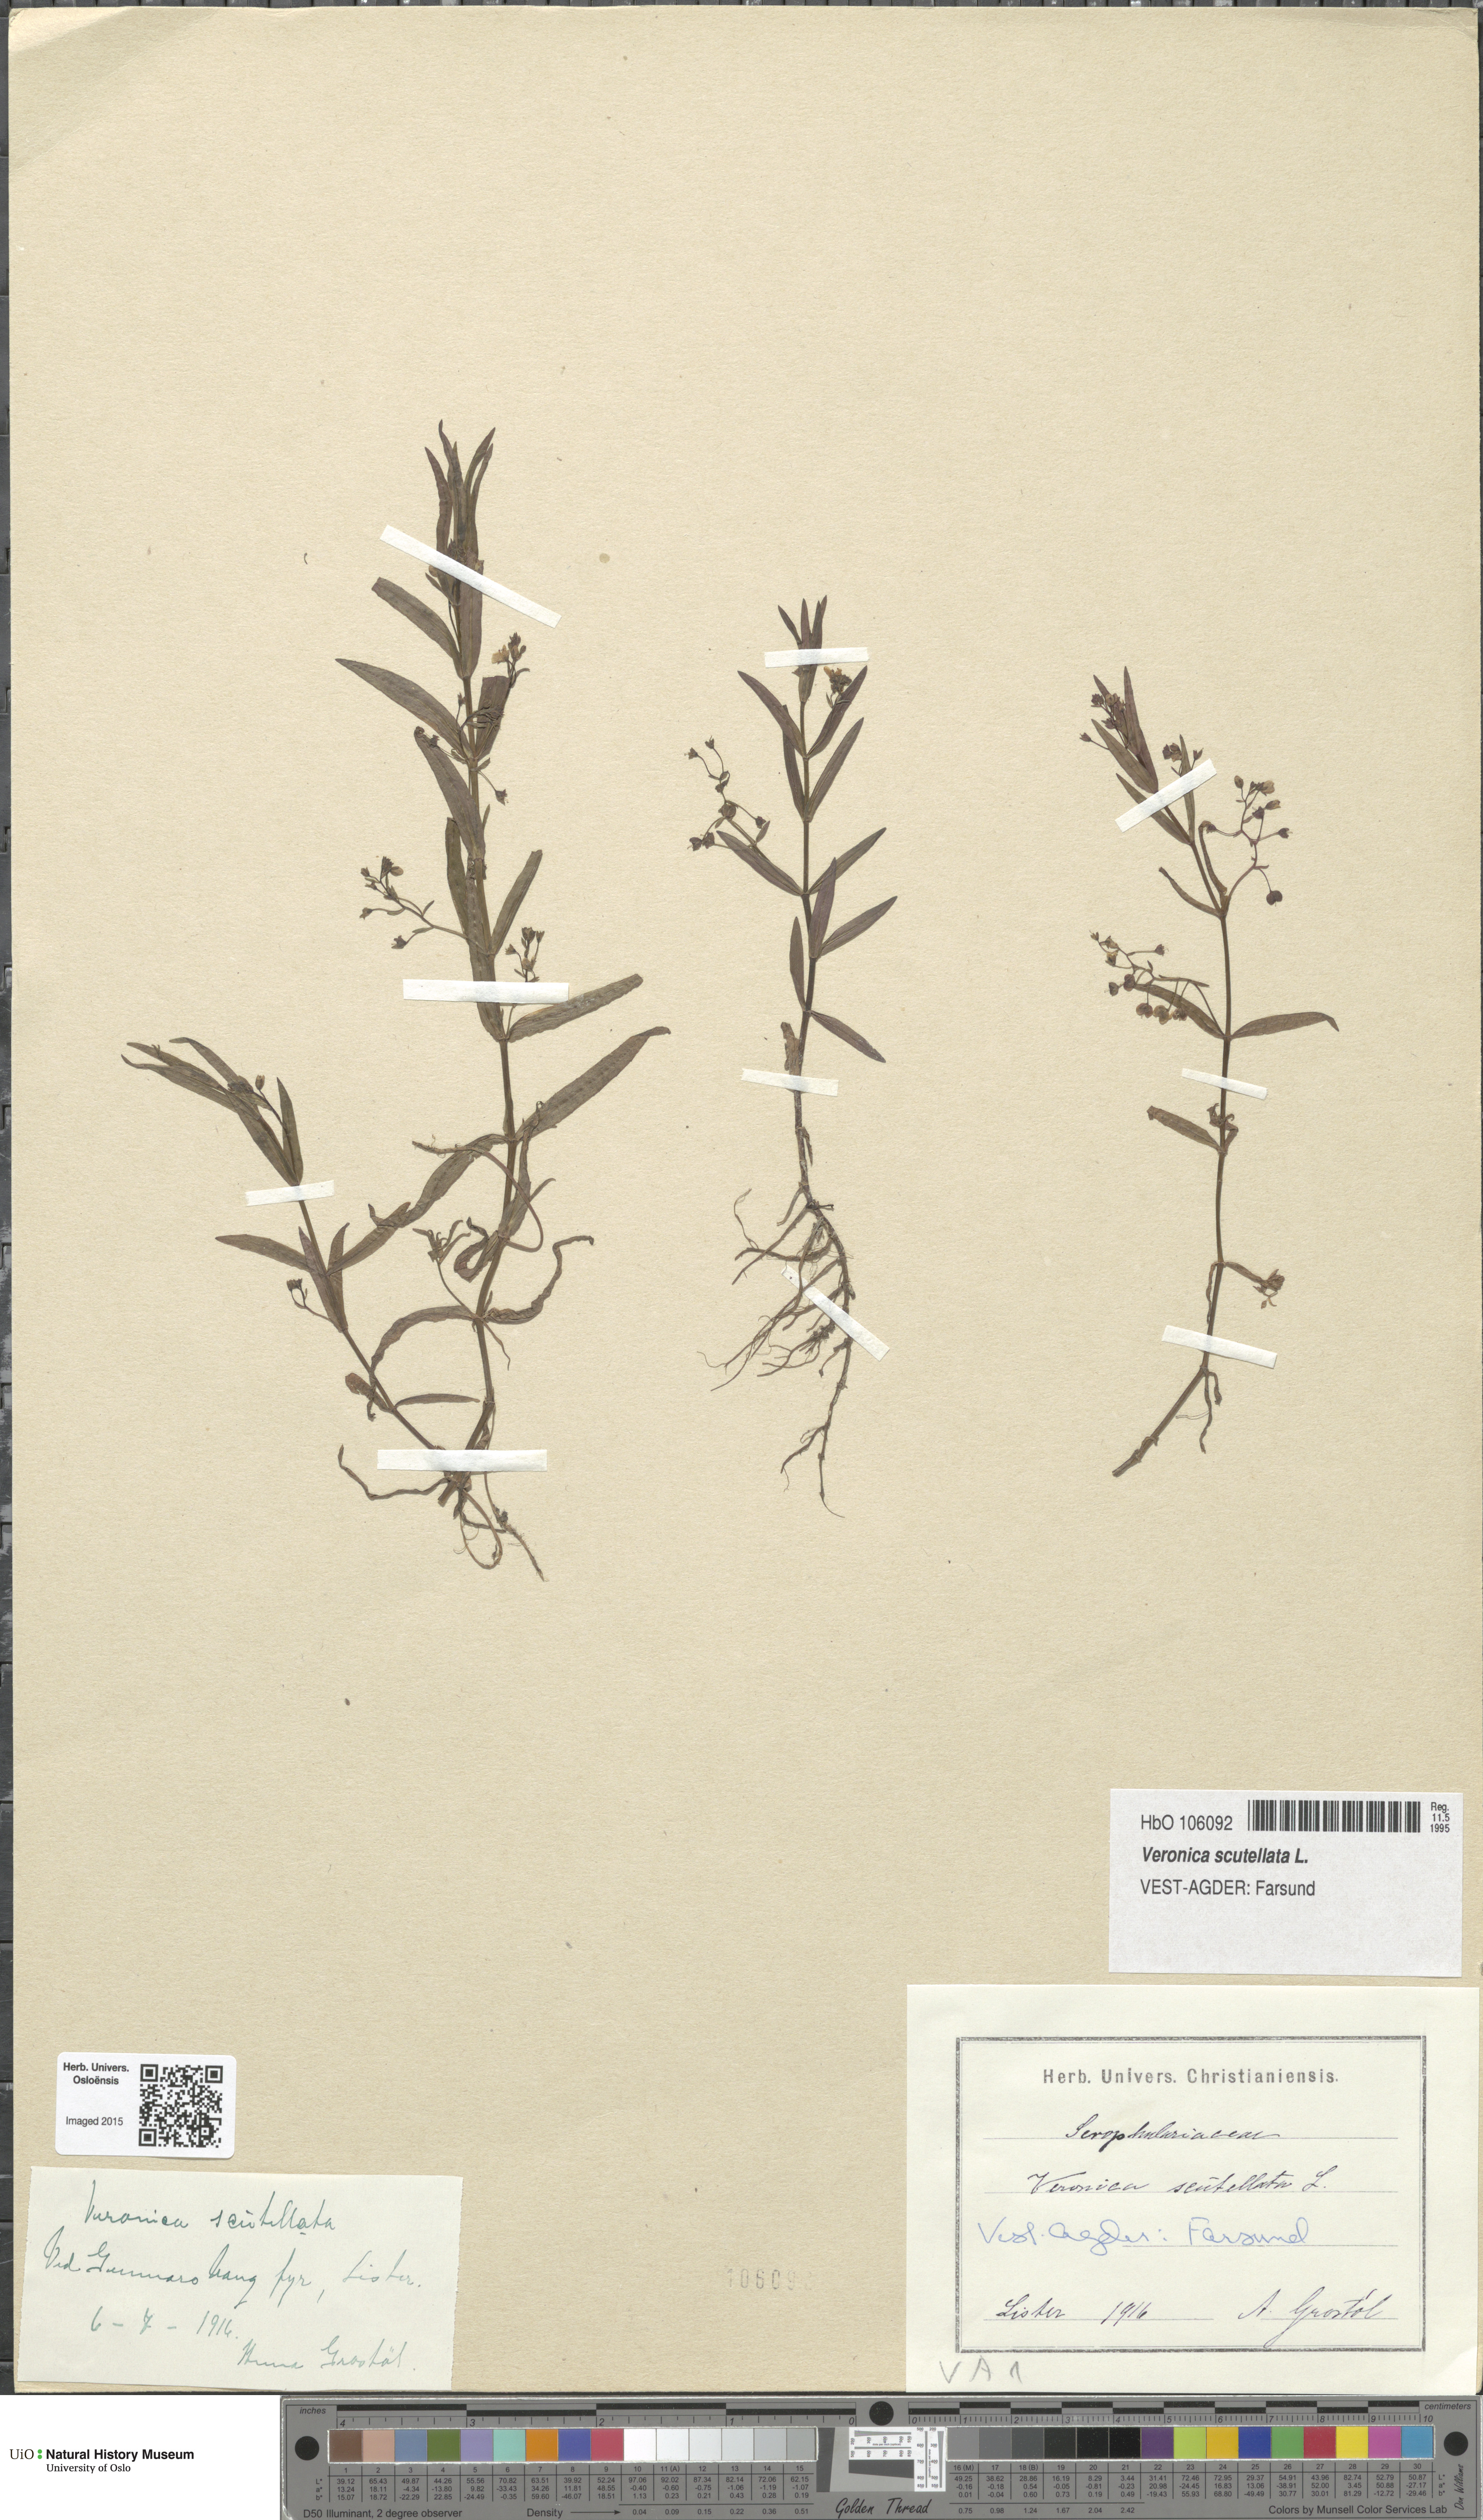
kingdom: Plantae
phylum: Tracheophyta
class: Magnoliopsida
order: Lamiales
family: Plantaginaceae
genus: Veronica
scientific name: Veronica scutellata
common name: Marsh speedwell
